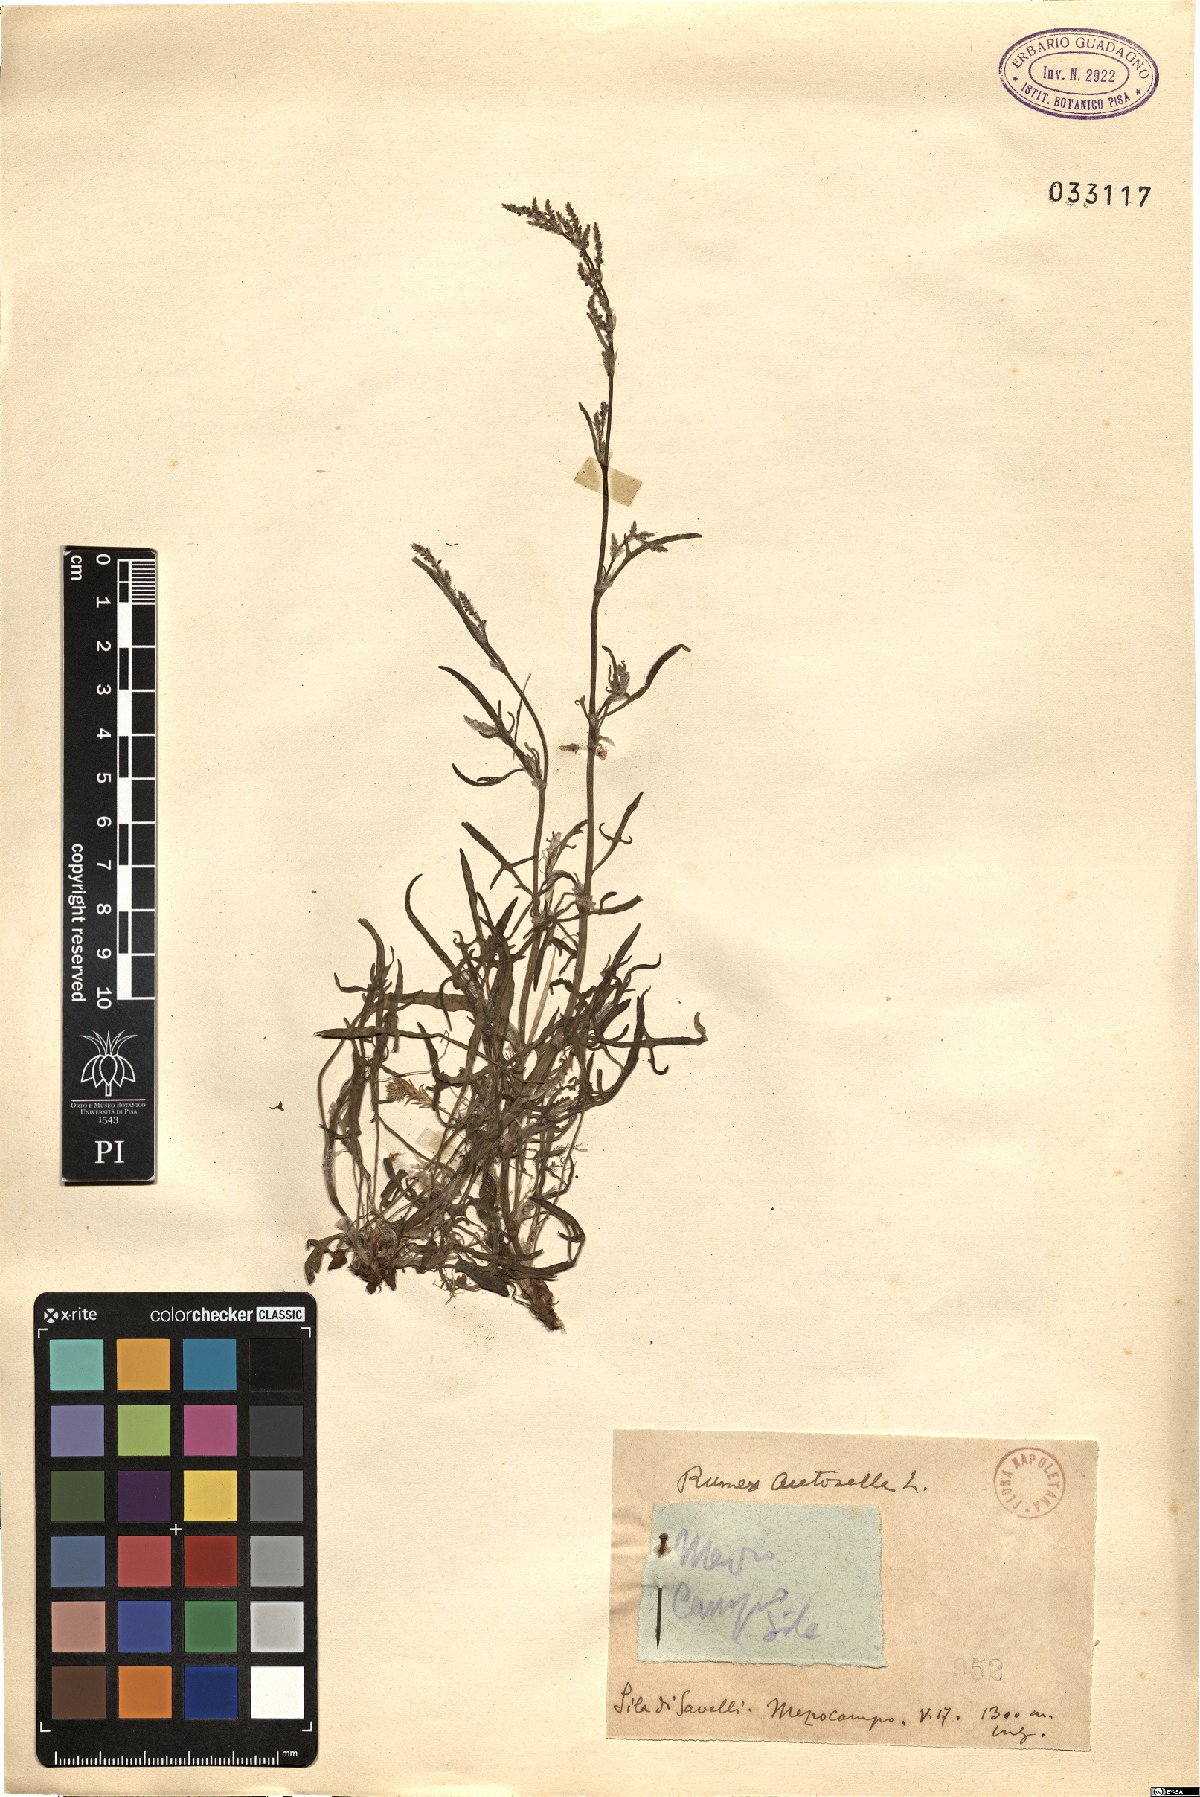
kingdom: Plantae
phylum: Tracheophyta
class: Magnoliopsida
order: Caryophyllales
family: Polygonaceae
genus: Rumex
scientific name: Rumex acetosella
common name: Common sheep sorrel
